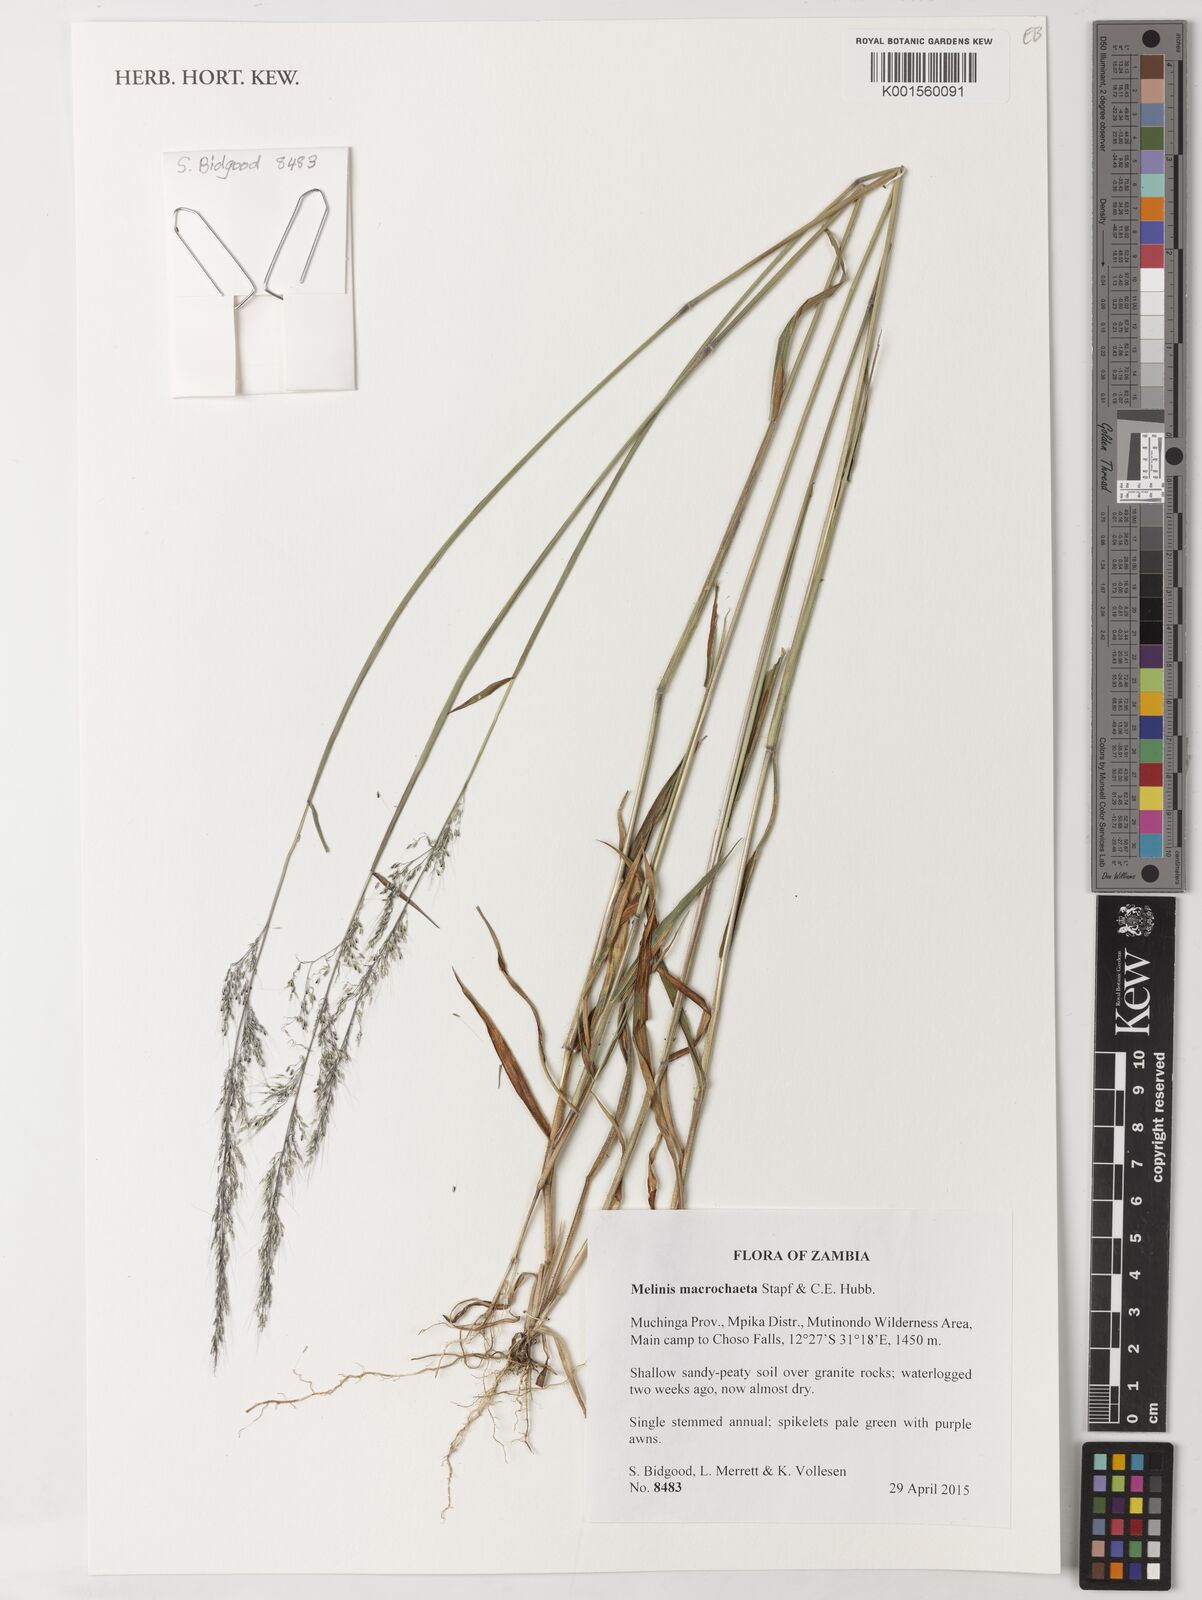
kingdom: Plantae
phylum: Tracheophyta
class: Liliopsida
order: Poales
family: Poaceae
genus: Melinis
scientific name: Melinis macrochaeta
